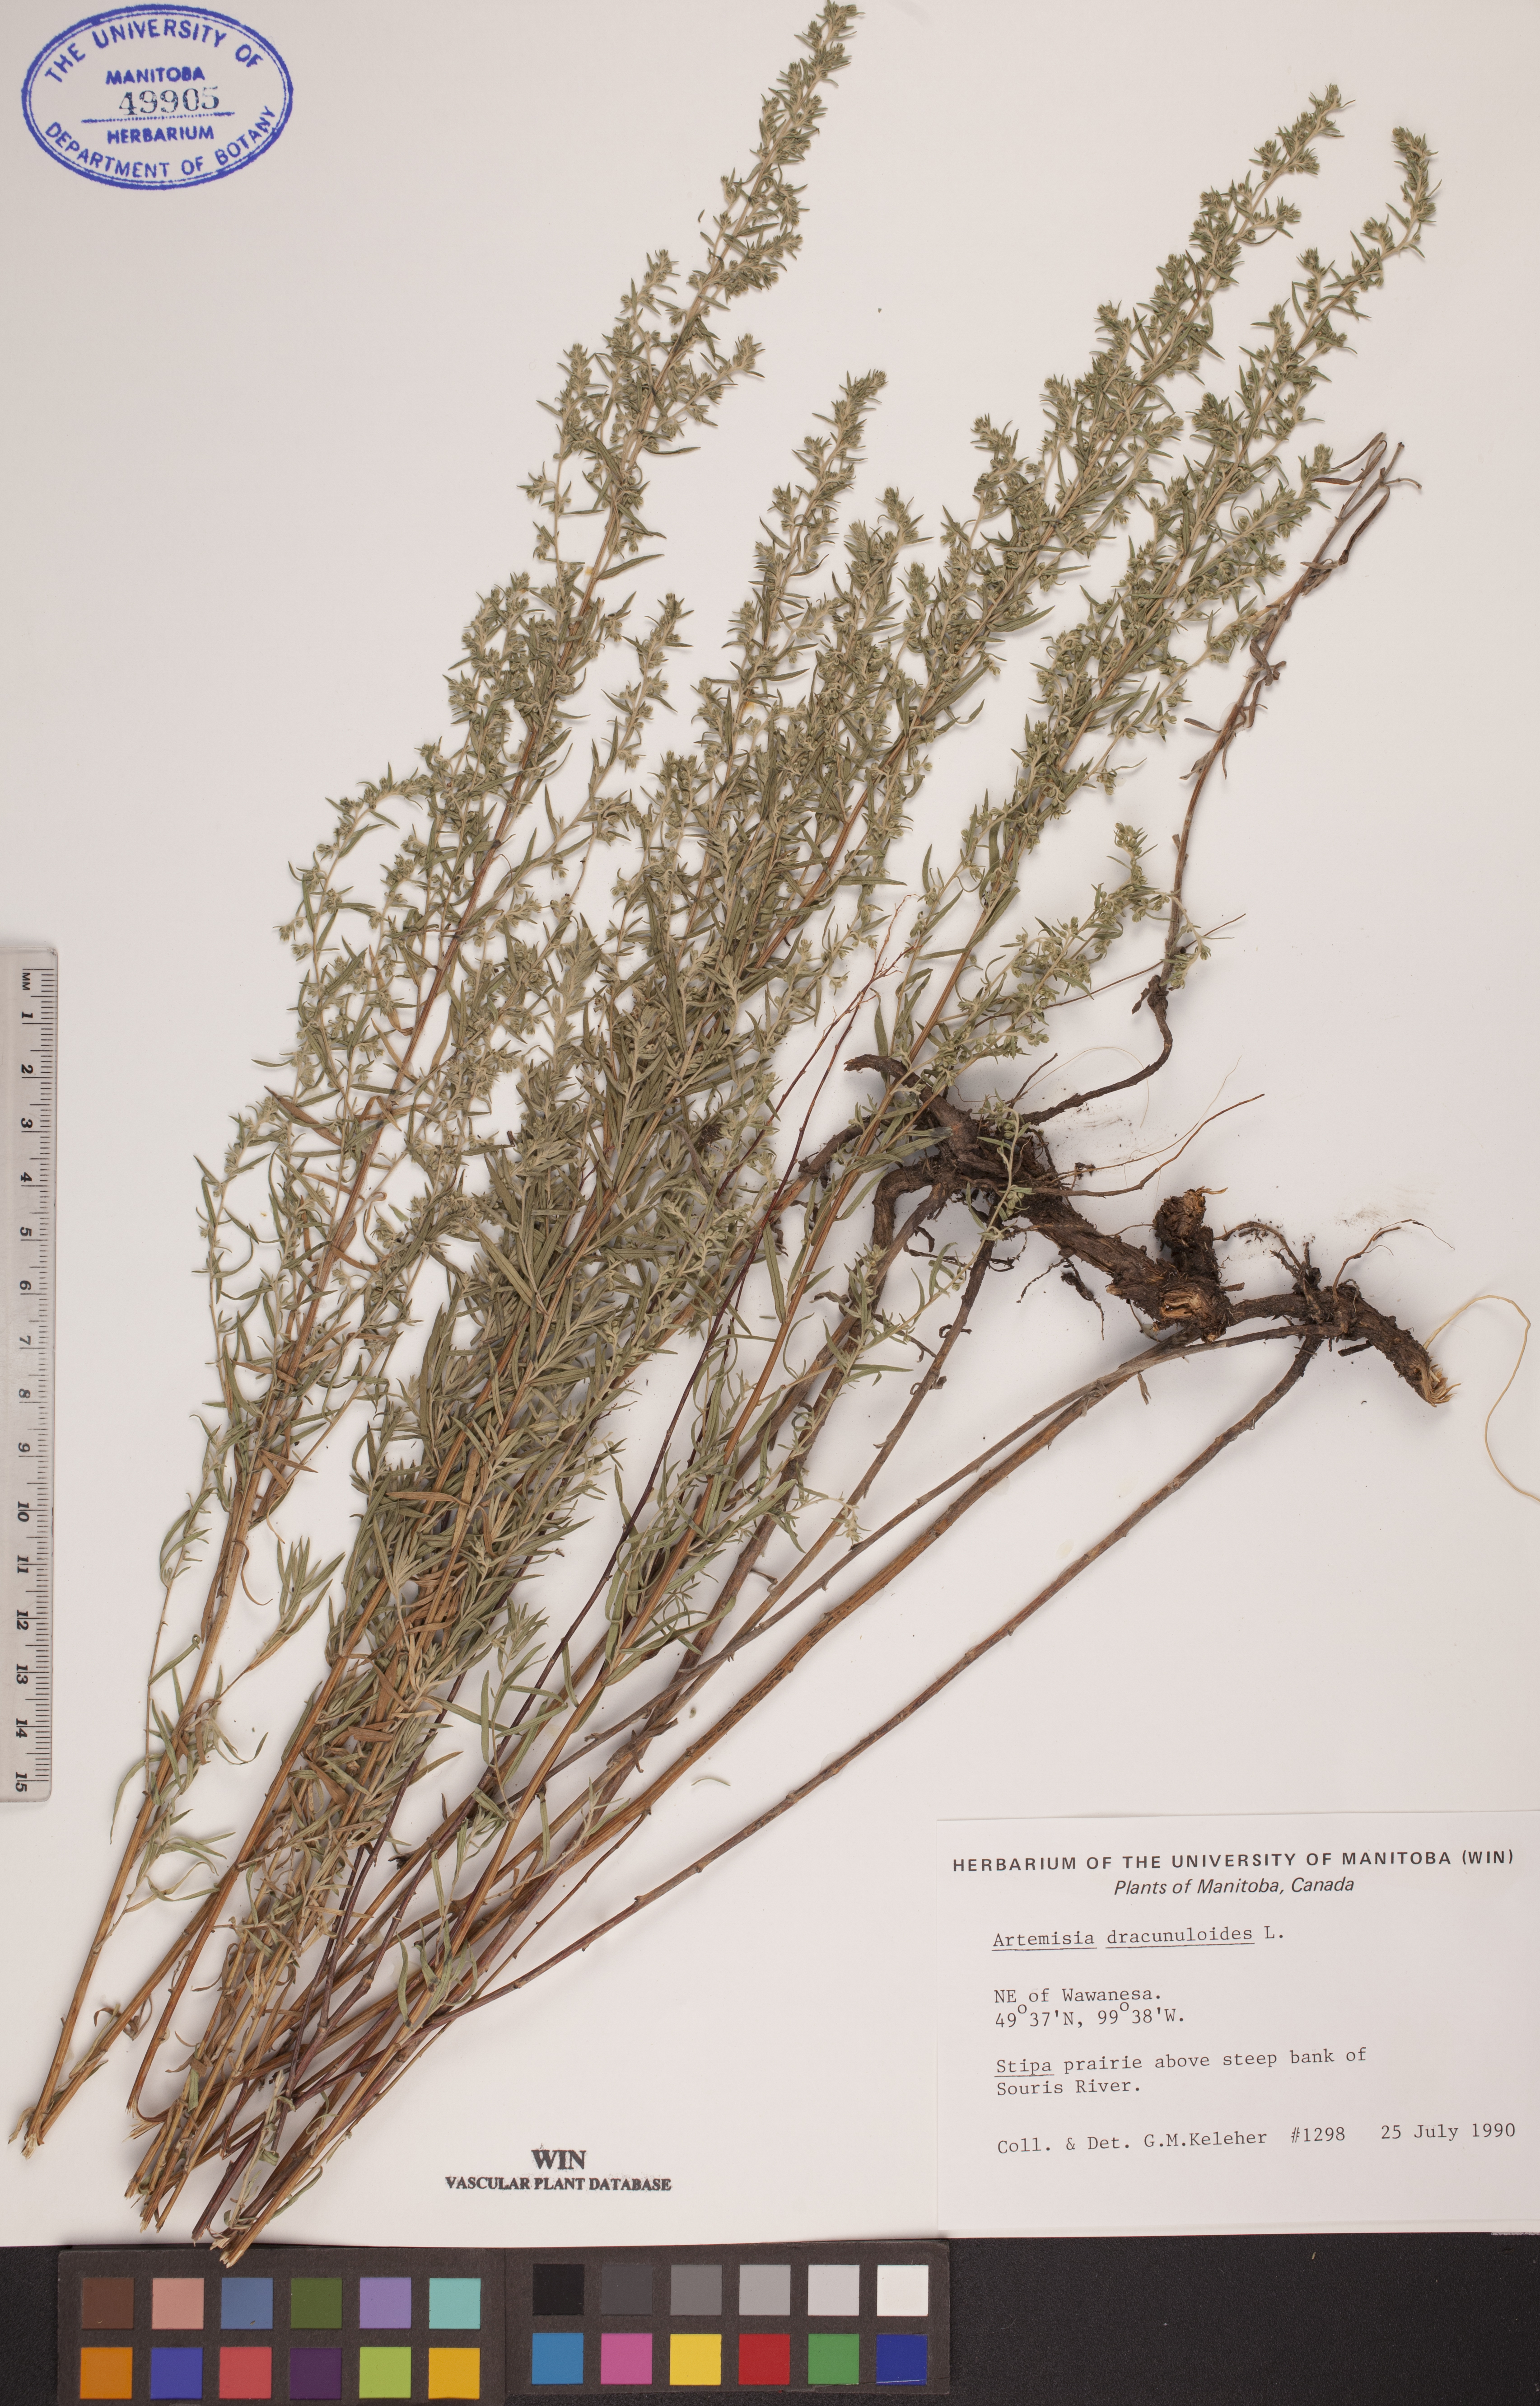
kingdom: Plantae
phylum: Tracheophyta
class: Magnoliopsida
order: Asterales
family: Asteraceae
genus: Artemisia
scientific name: Artemisia dracunculus
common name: Tarragon
